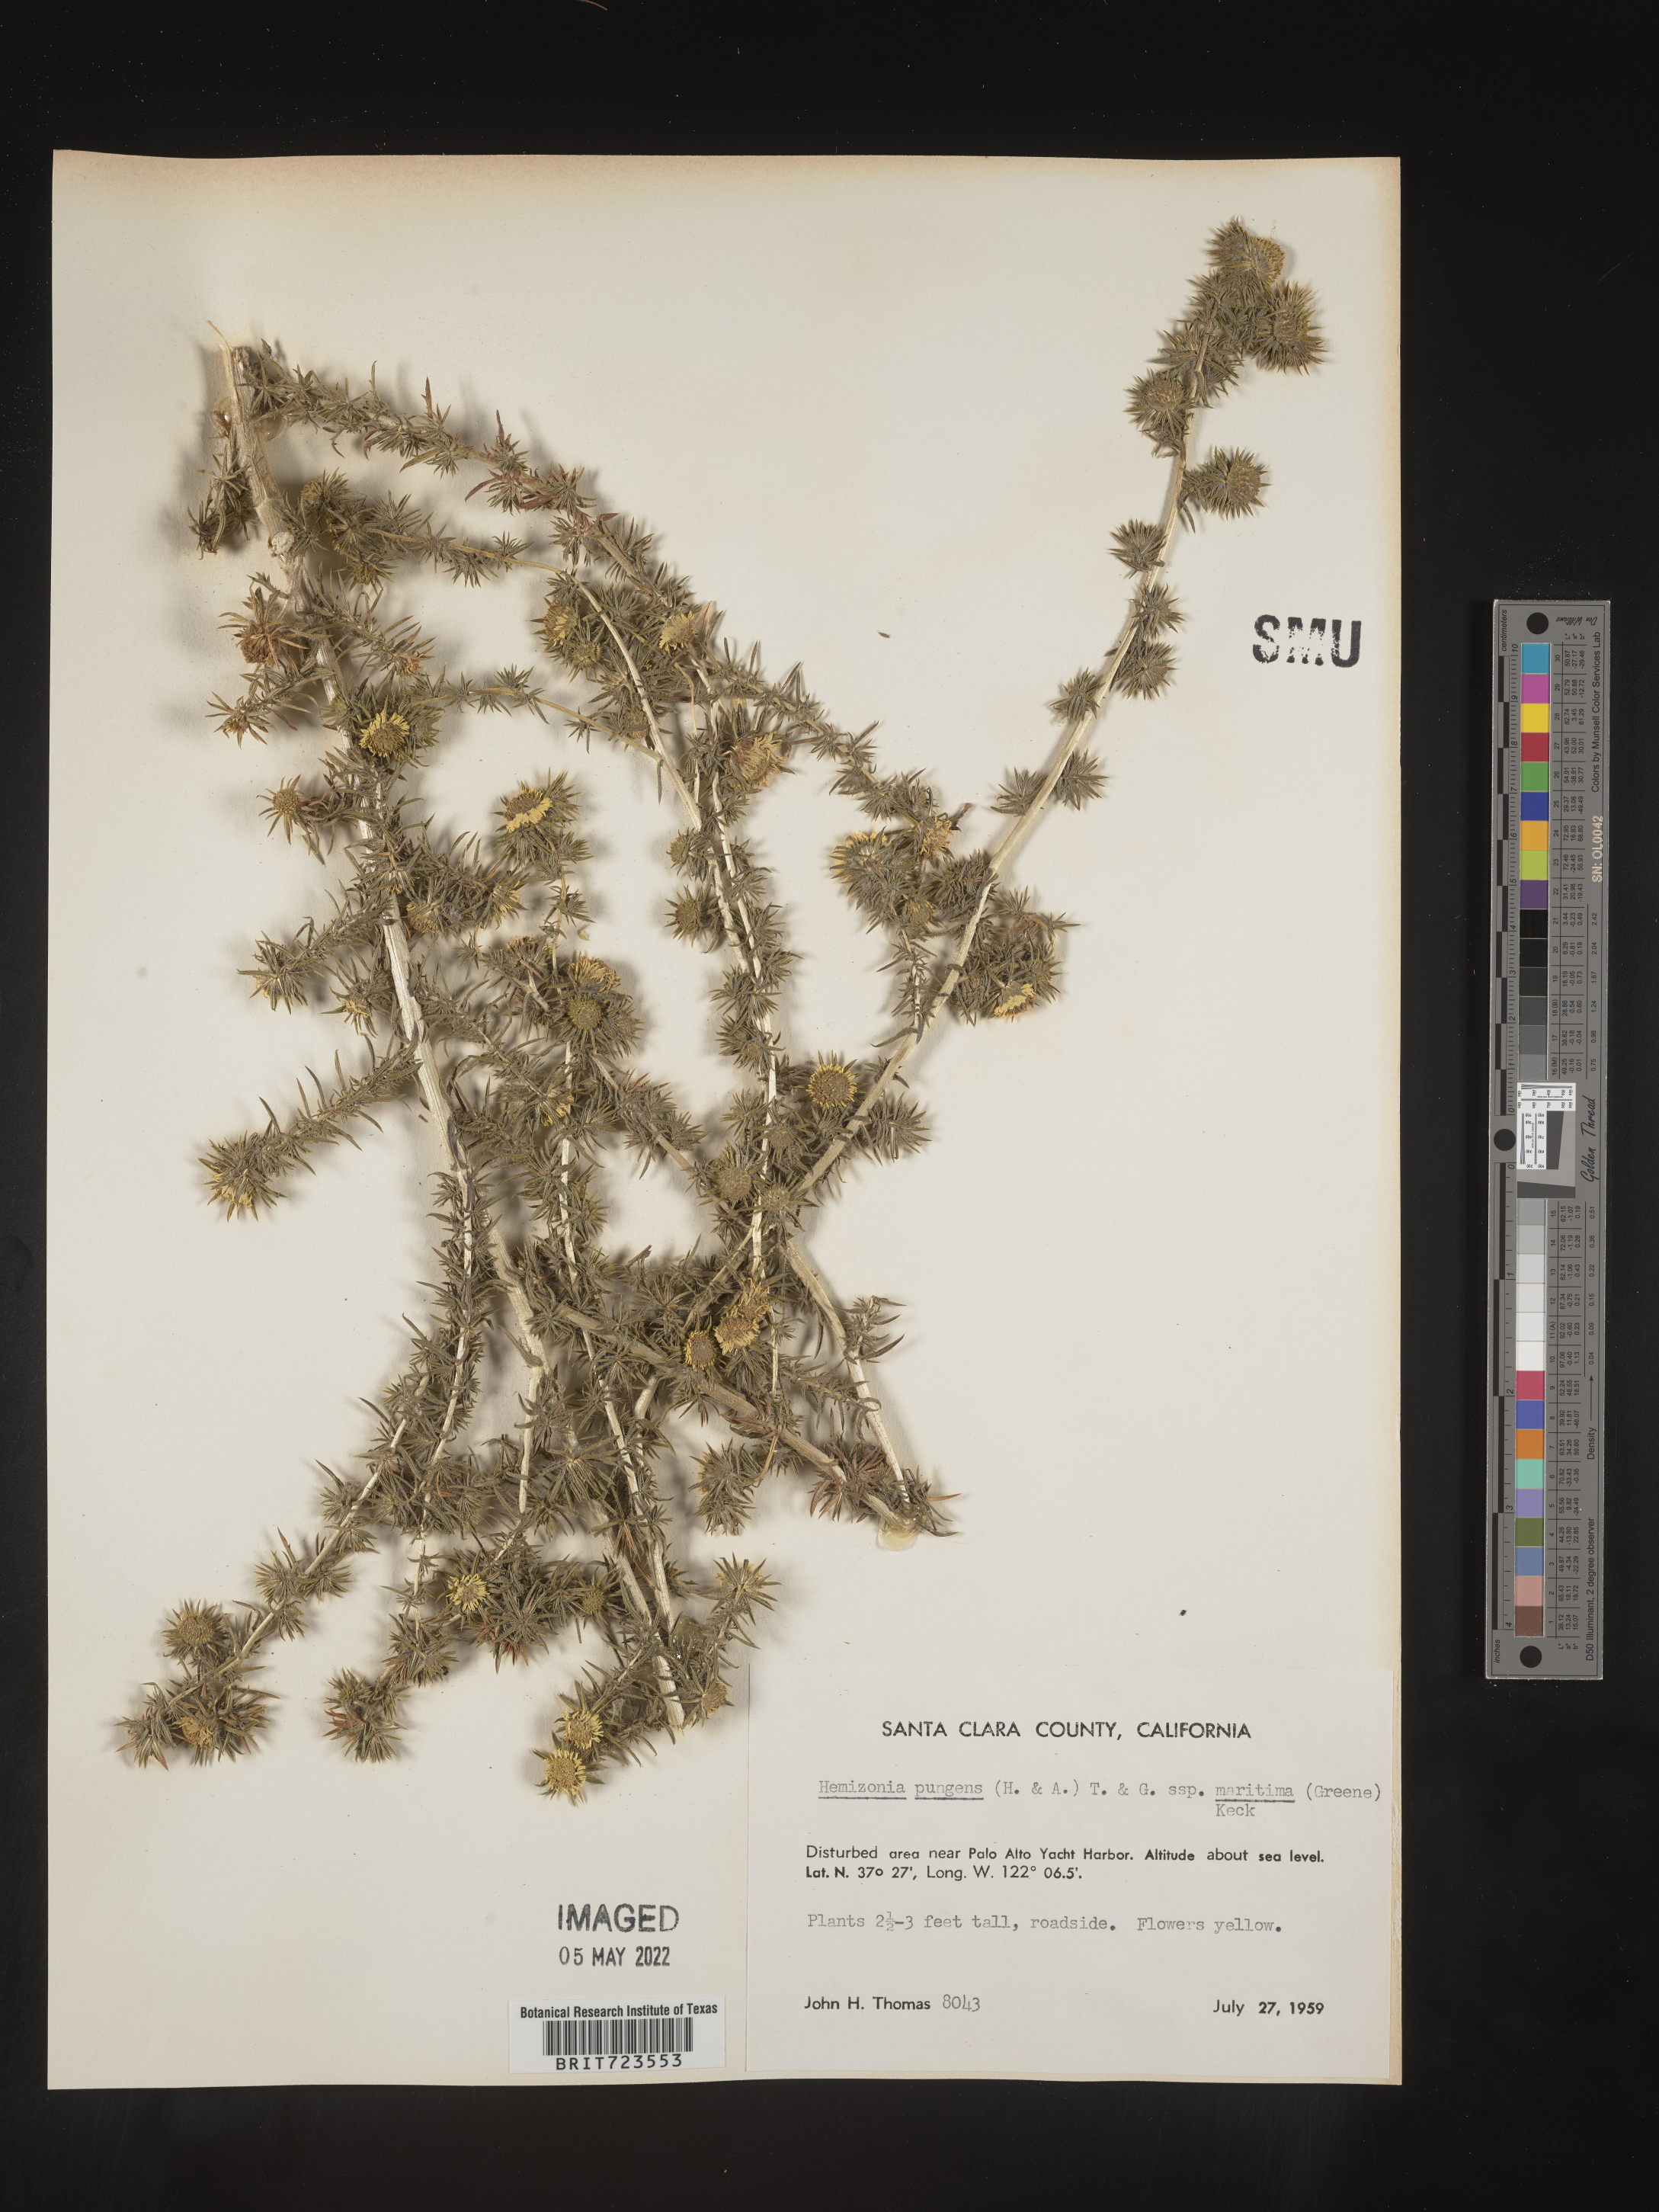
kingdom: Plantae
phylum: Tracheophyta
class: Magnoliopsida
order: Asterales
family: Asteraceae
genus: Hemizonia
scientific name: Hemizonia
